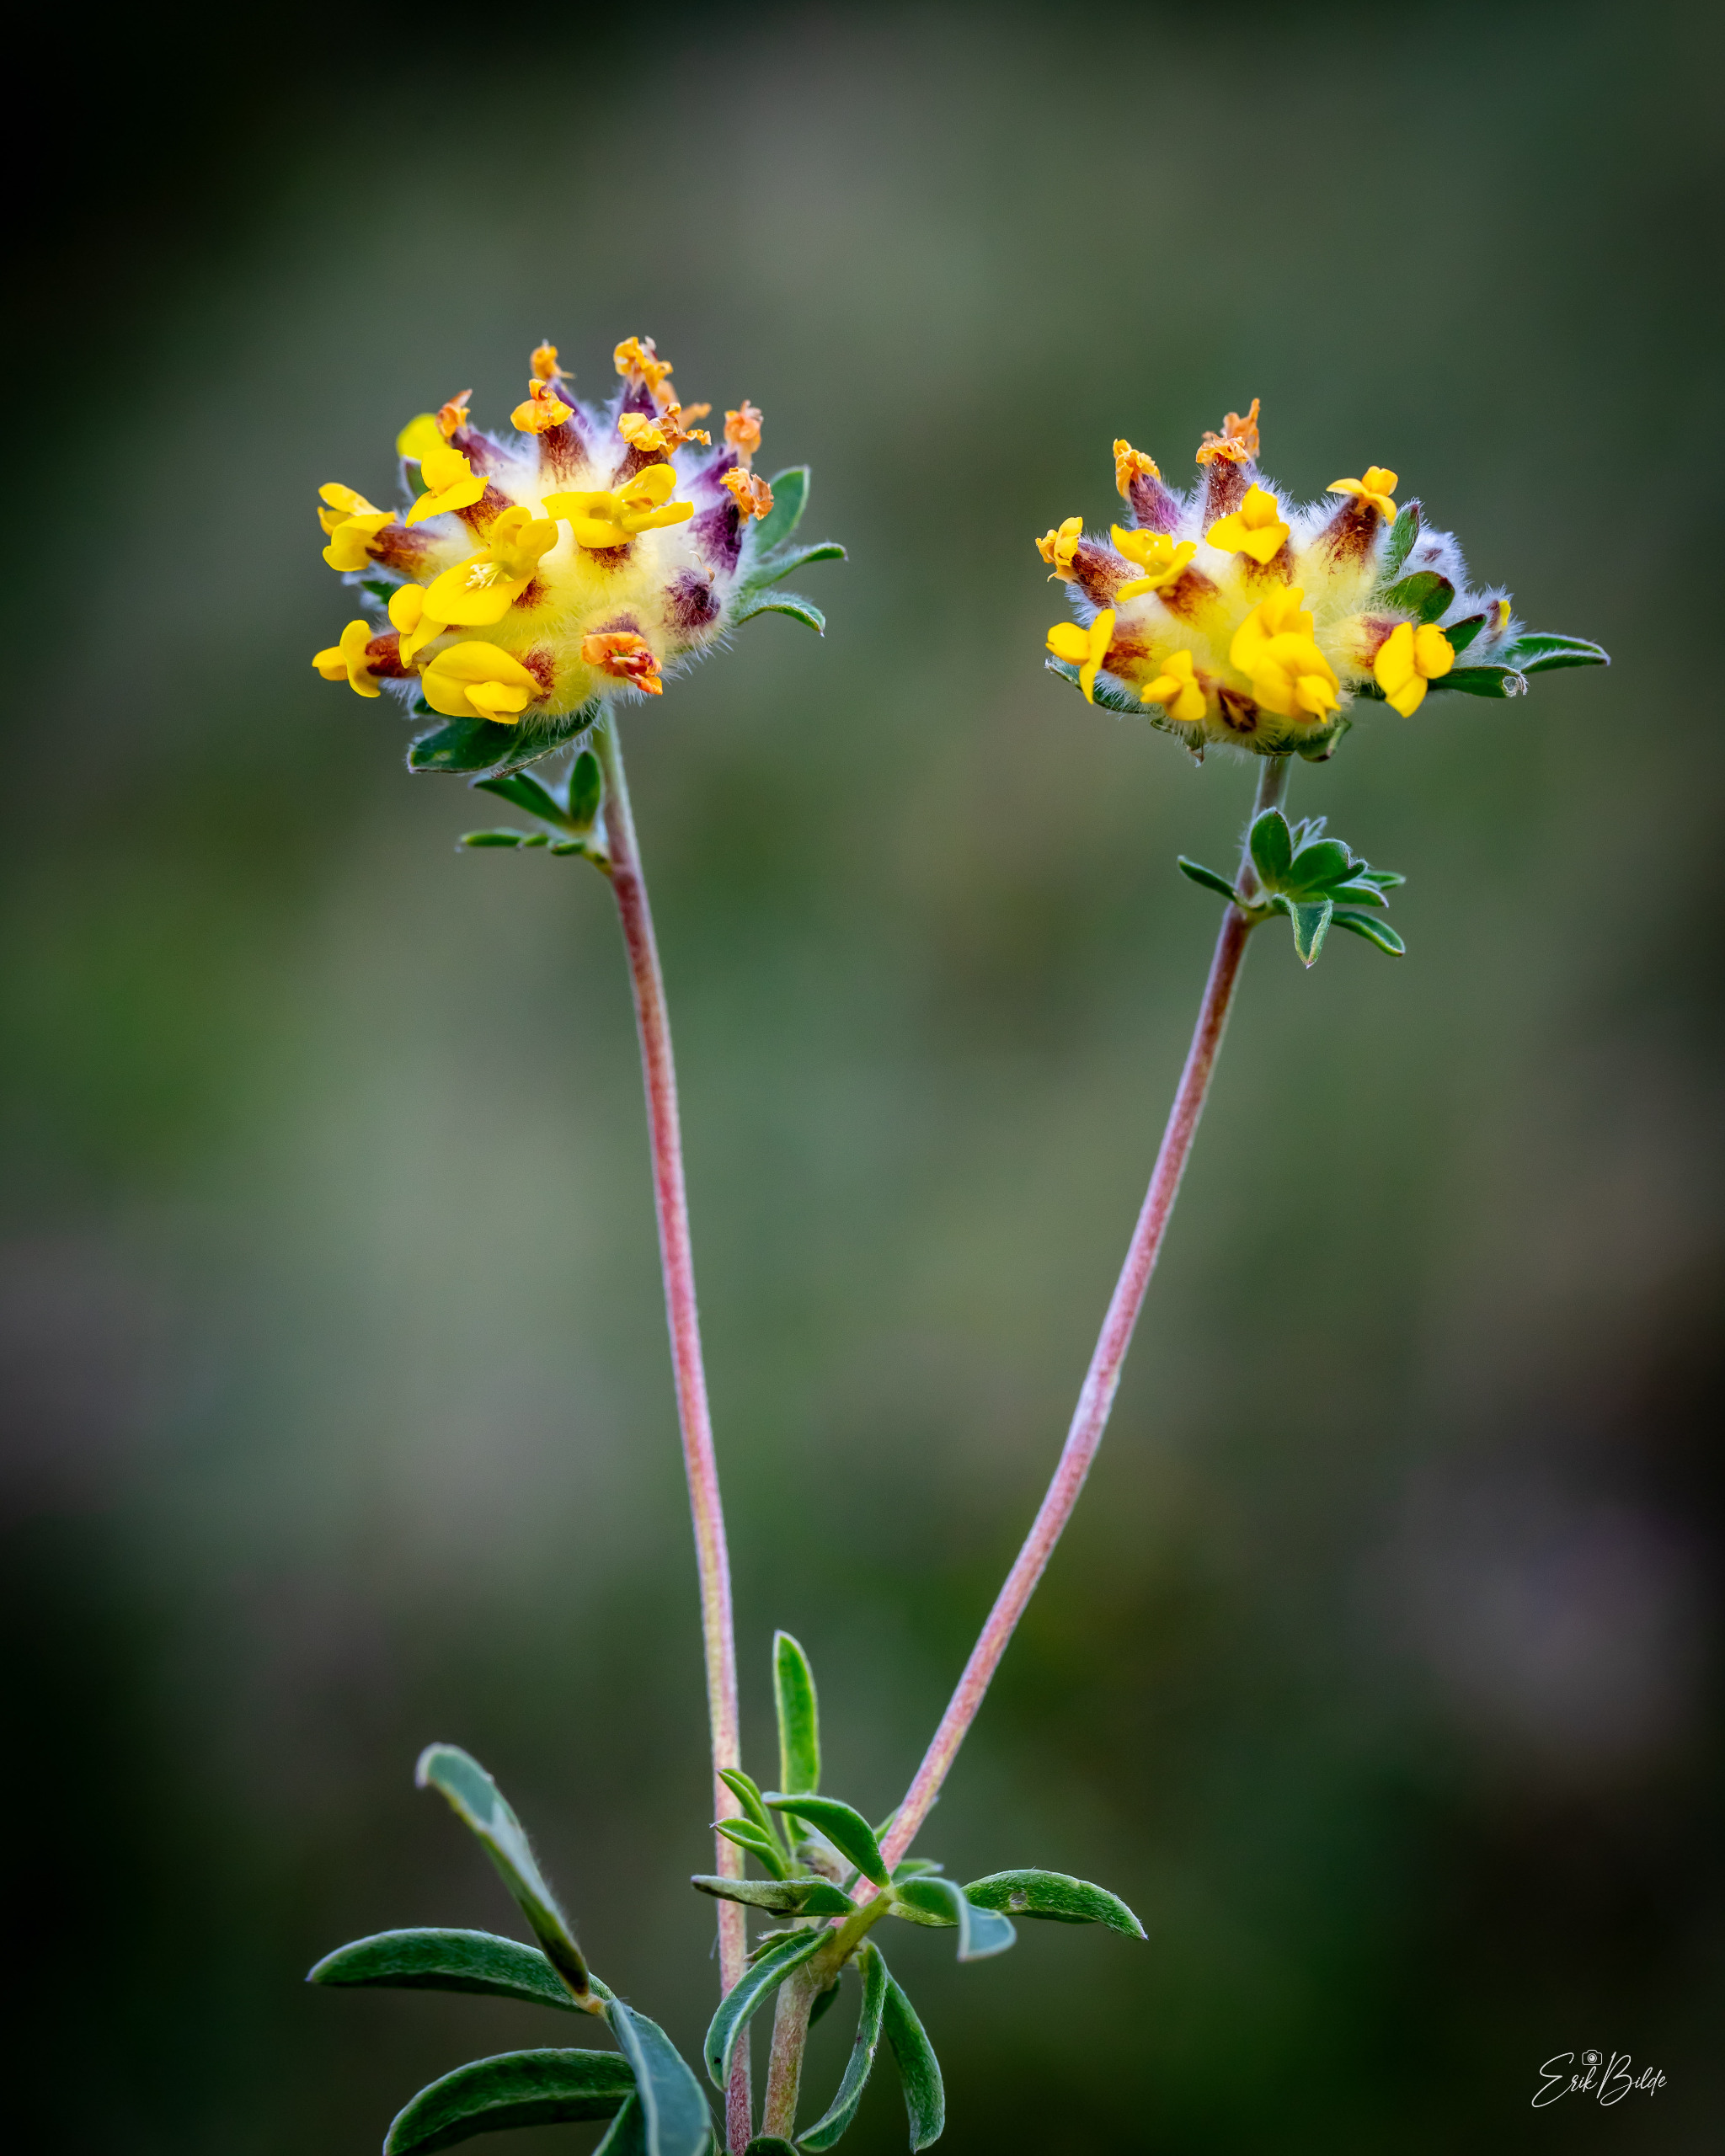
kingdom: Plantae
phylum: Tracheophyta
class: Magnoliopsida
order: Fabales
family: Fabaceae
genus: Anthyllis
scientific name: Anthyllis vulneraria
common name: Rundbælg
